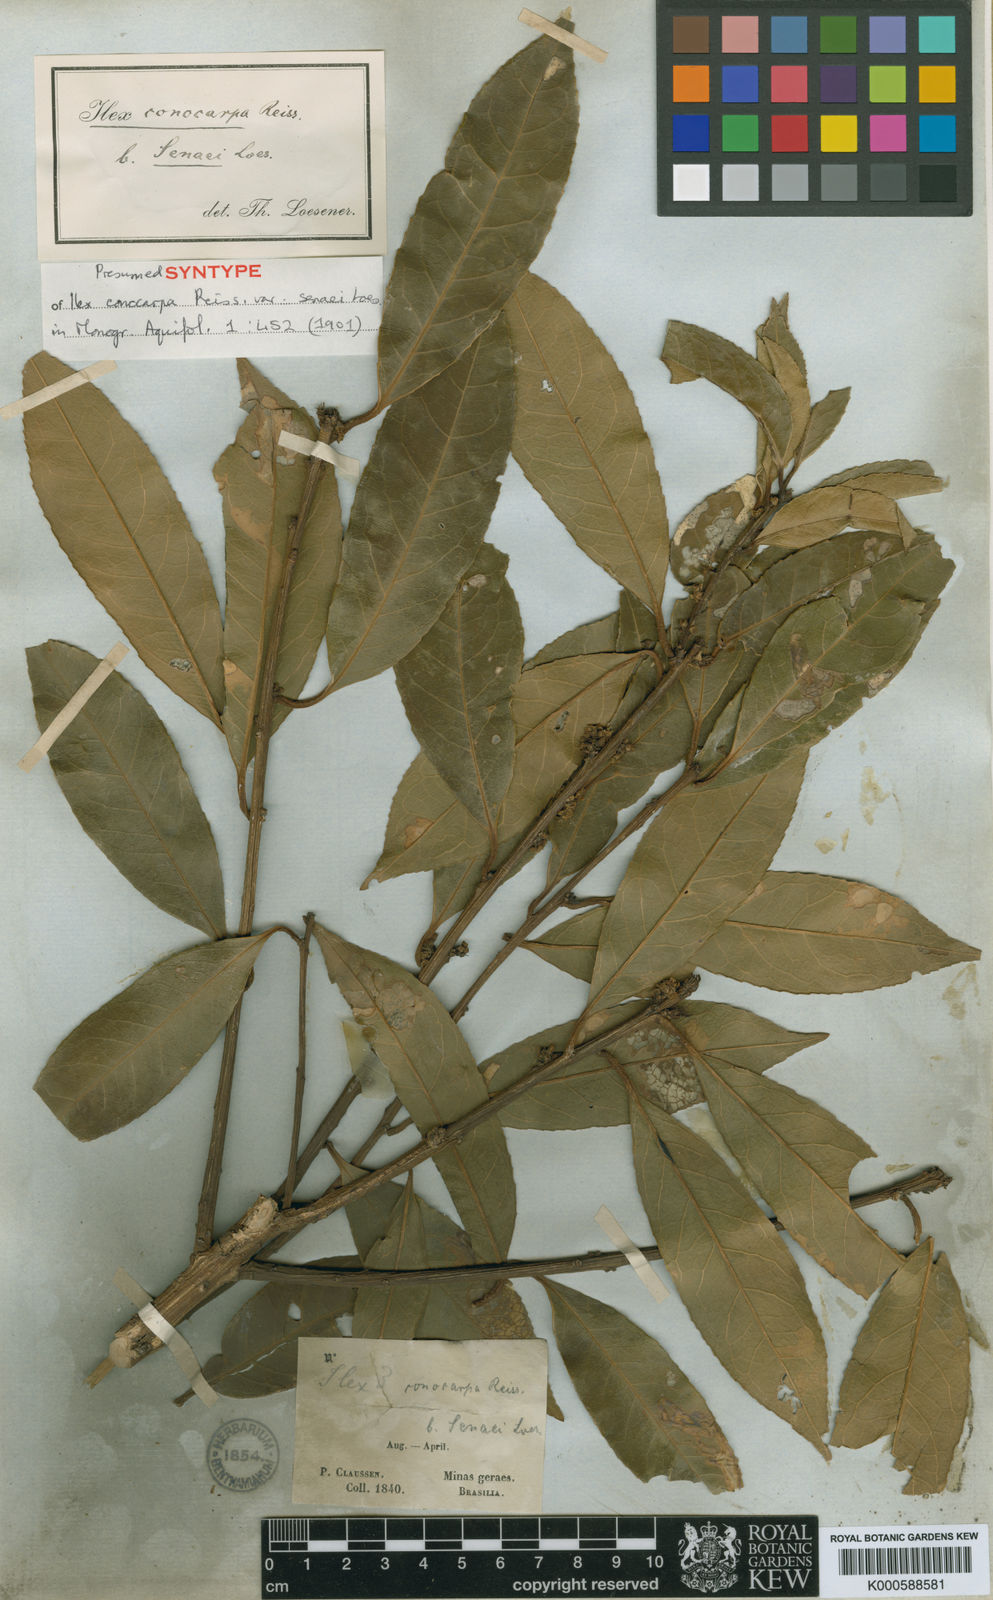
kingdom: Plantae
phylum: Tracheophyta
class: Magnoliopsida
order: Aquifoliales
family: Aquifoliaceae
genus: Ilex
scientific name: Ilex conocarpa
